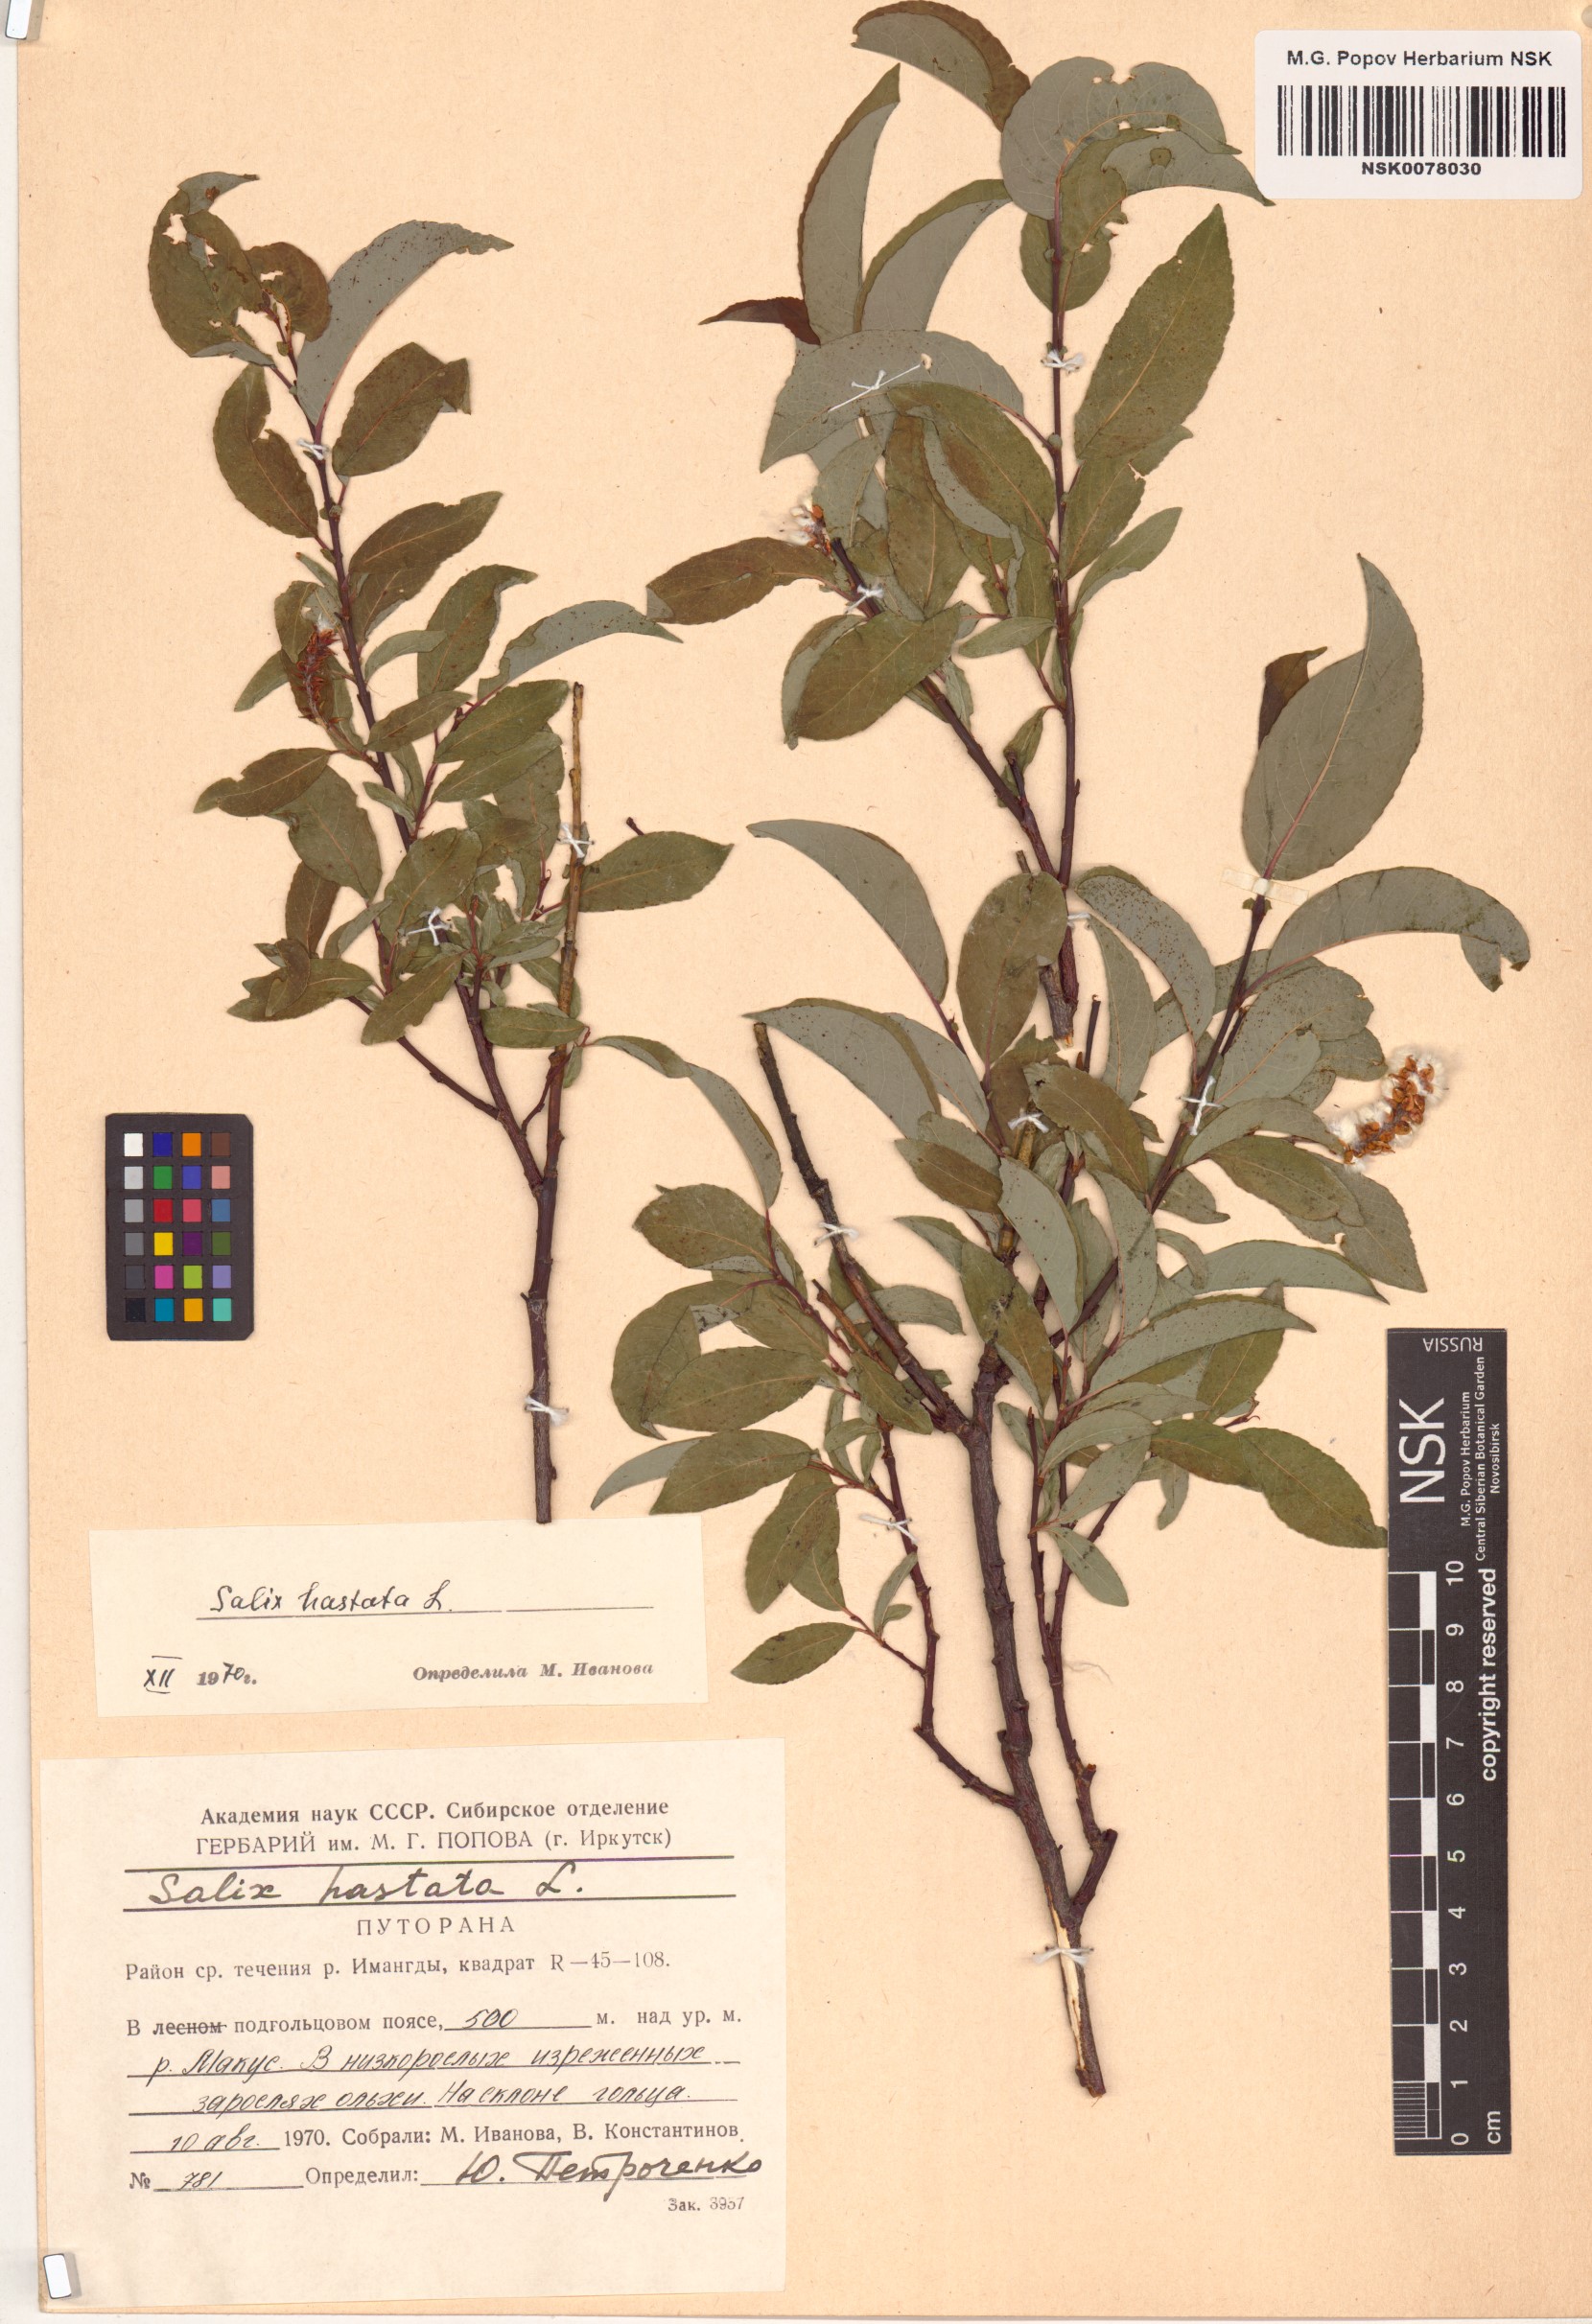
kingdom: Plantae
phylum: Tracheophyta
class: Magnoliopsida
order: Malpighiales
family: Salicaceae
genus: Salix
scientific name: Salix hastata
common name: Halberd willow
